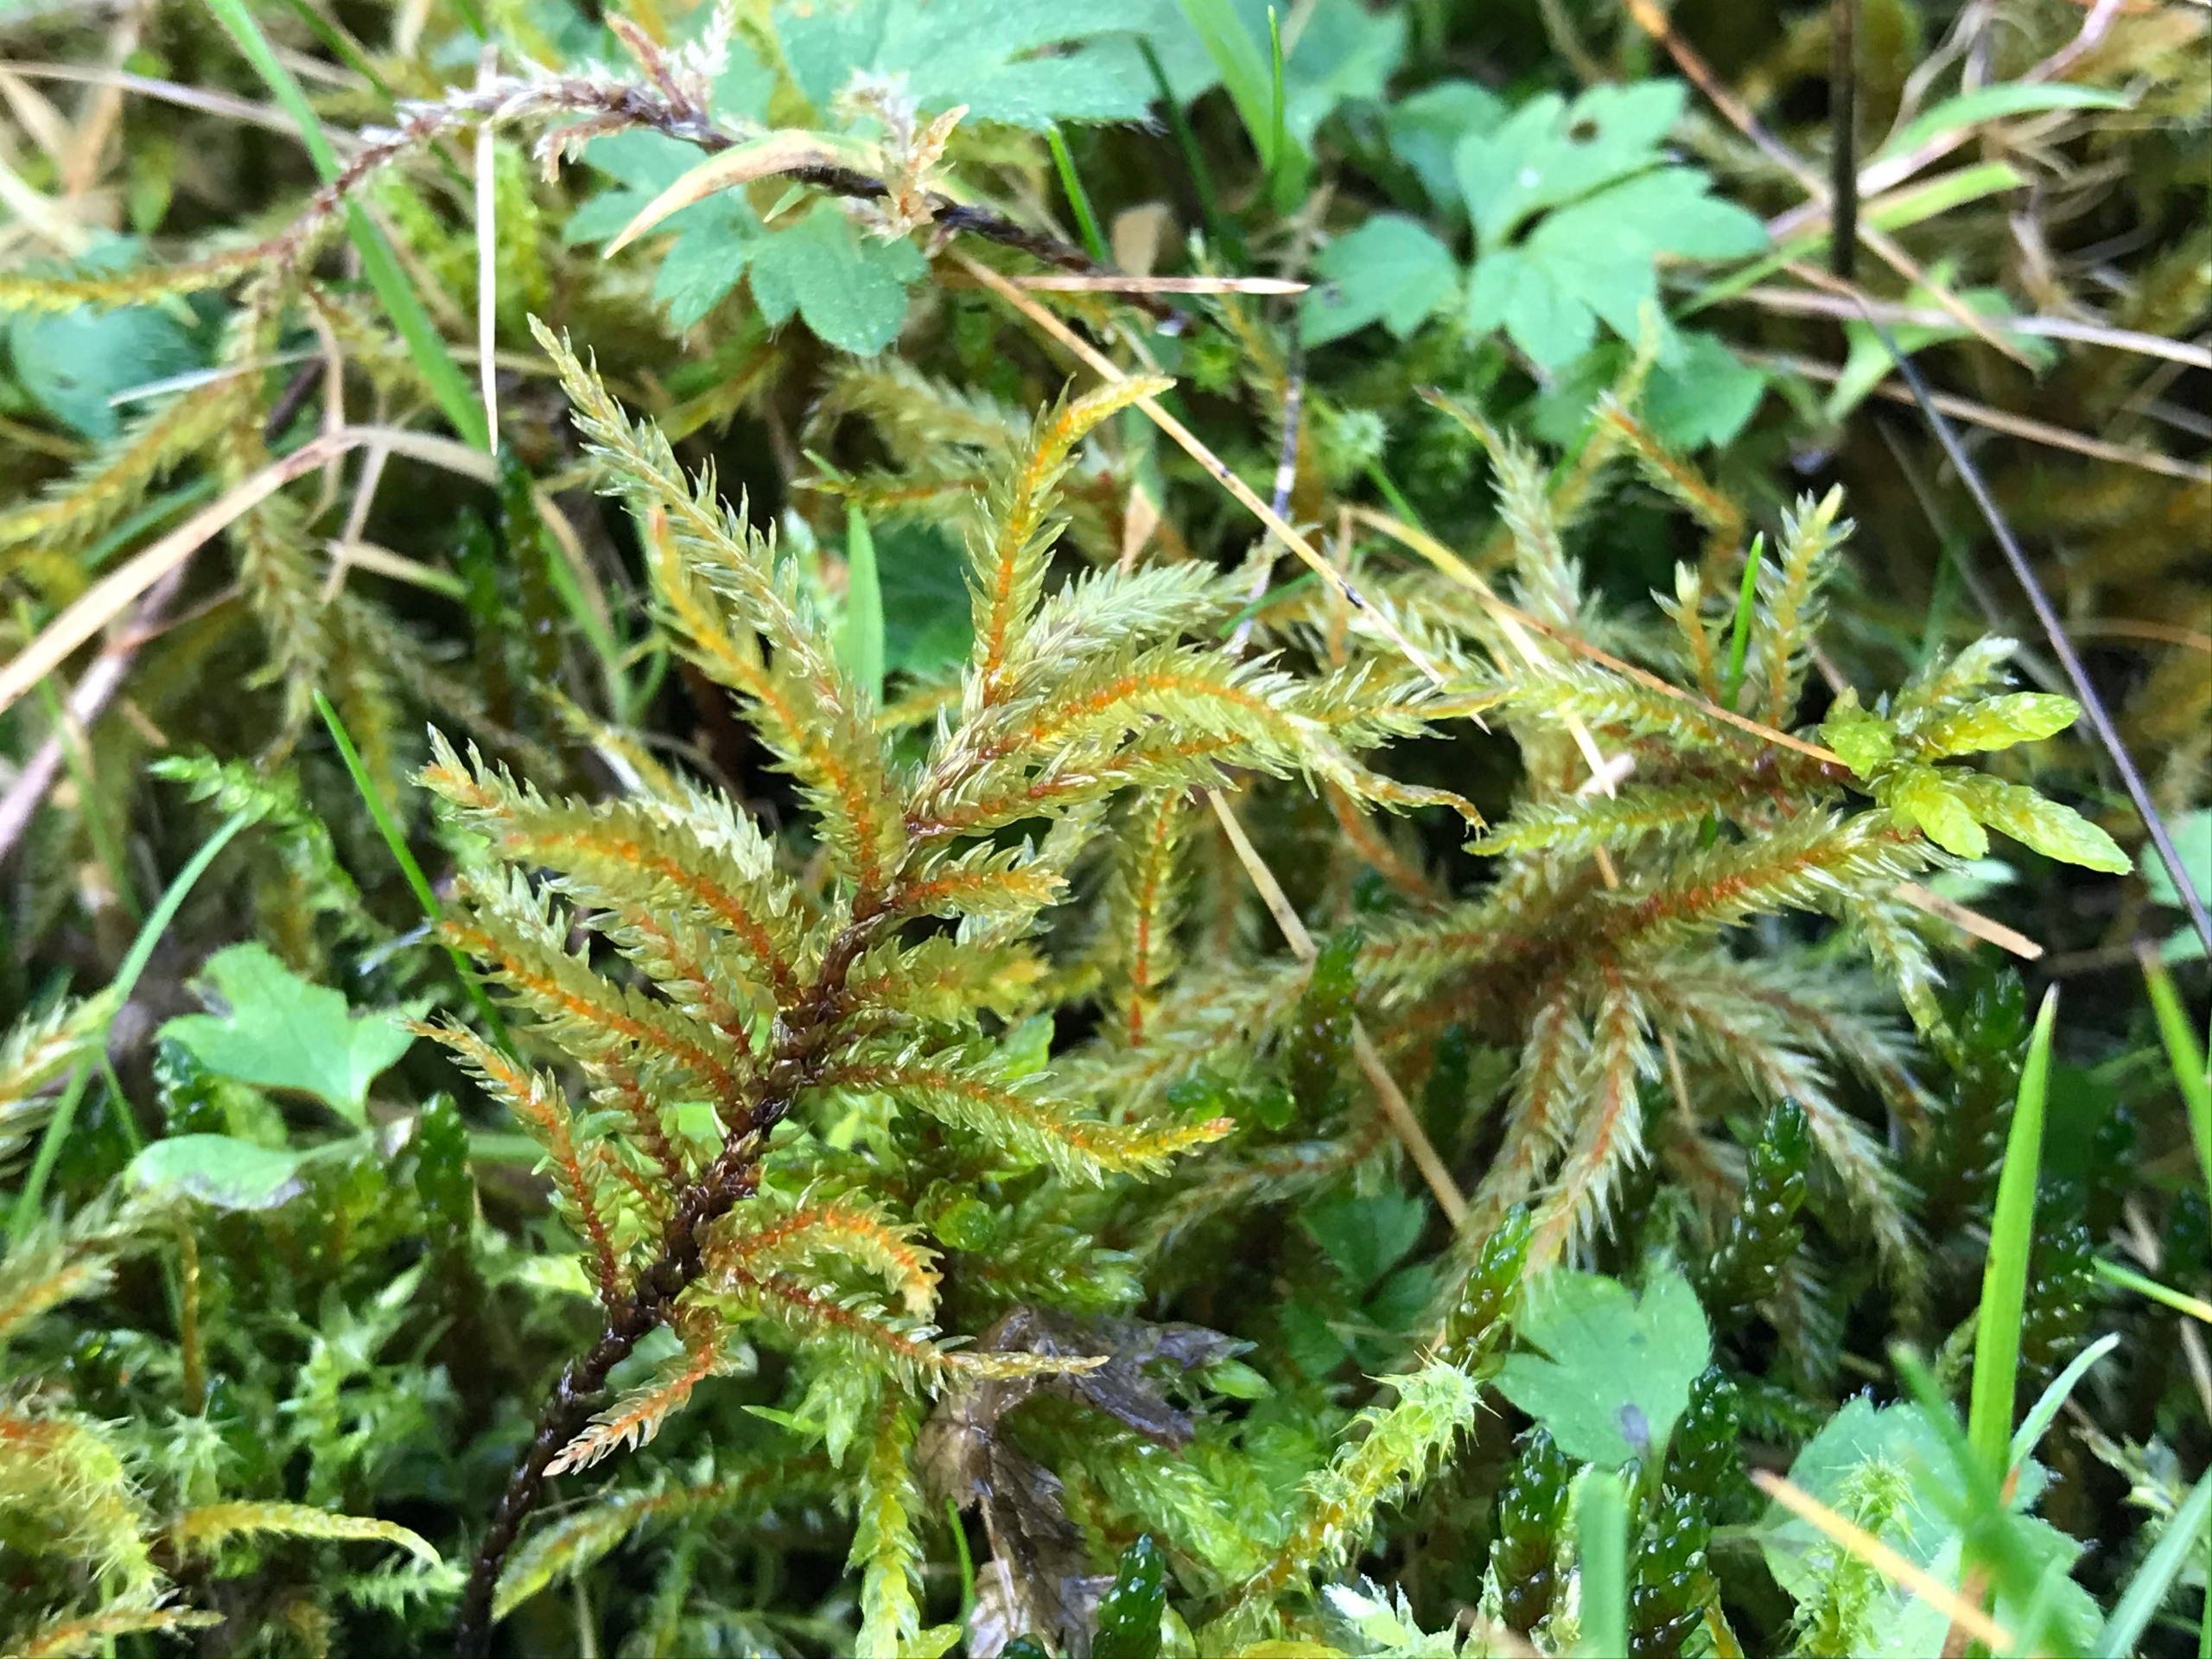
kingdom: Plantae
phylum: Bryophyta
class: Bryopsida
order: Hypnales
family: Climaciaceae
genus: Climacium
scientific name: Climacium dendroides
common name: Stor engkost
